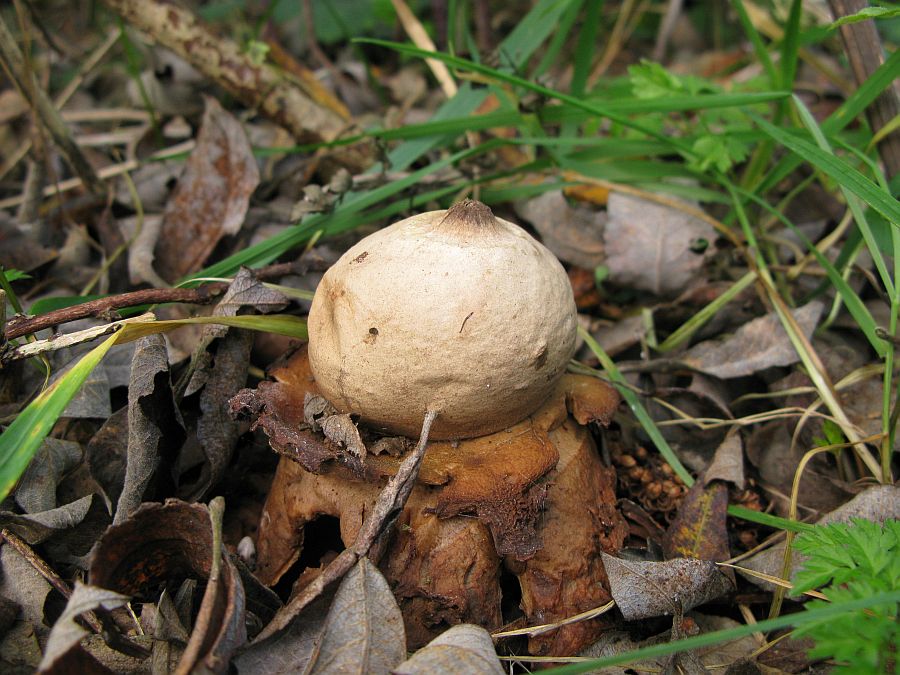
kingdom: Fungi
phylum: Basidiomycota
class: Agaricomycetes
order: Geastrales
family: Geastraceae
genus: Geastrum
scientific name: Geastrum michelianum
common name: kødet stjernebold
